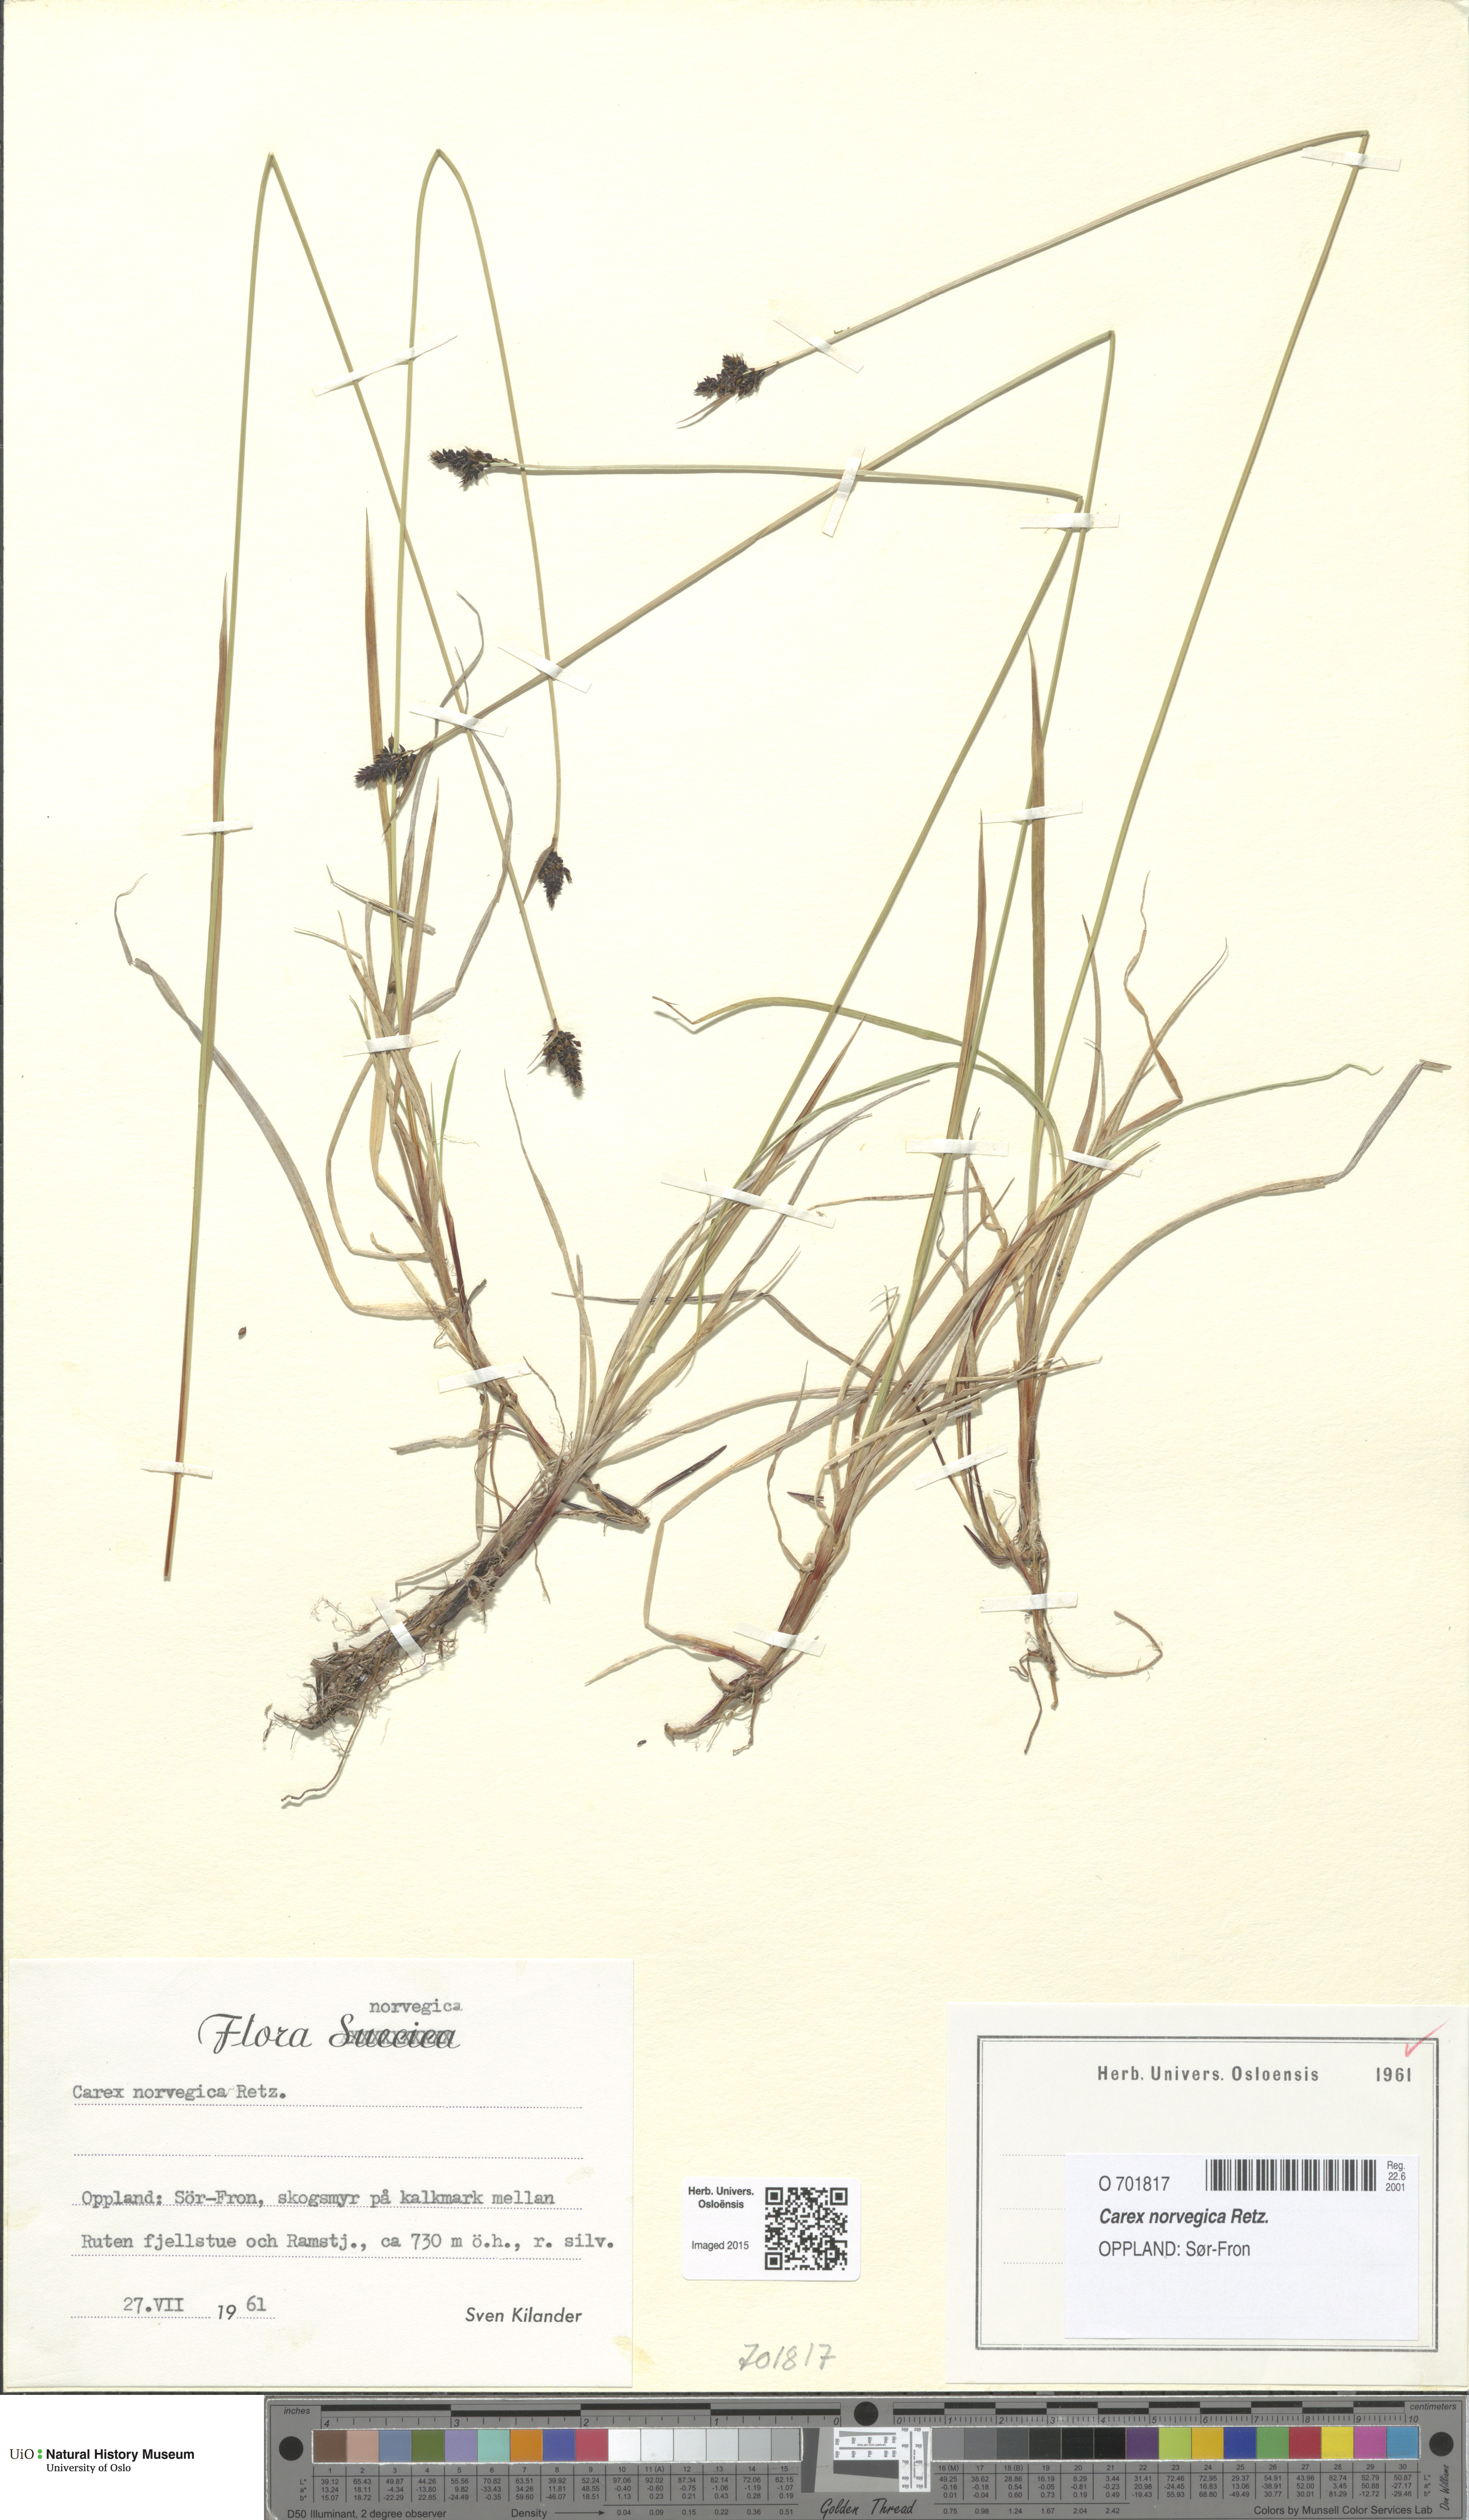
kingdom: Plantae
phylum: Tracheophyta
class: Liliopsida
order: Poales
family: Cyperaceae
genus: Carex
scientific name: Carex norvegica
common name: Close-headed alpine-sedge
